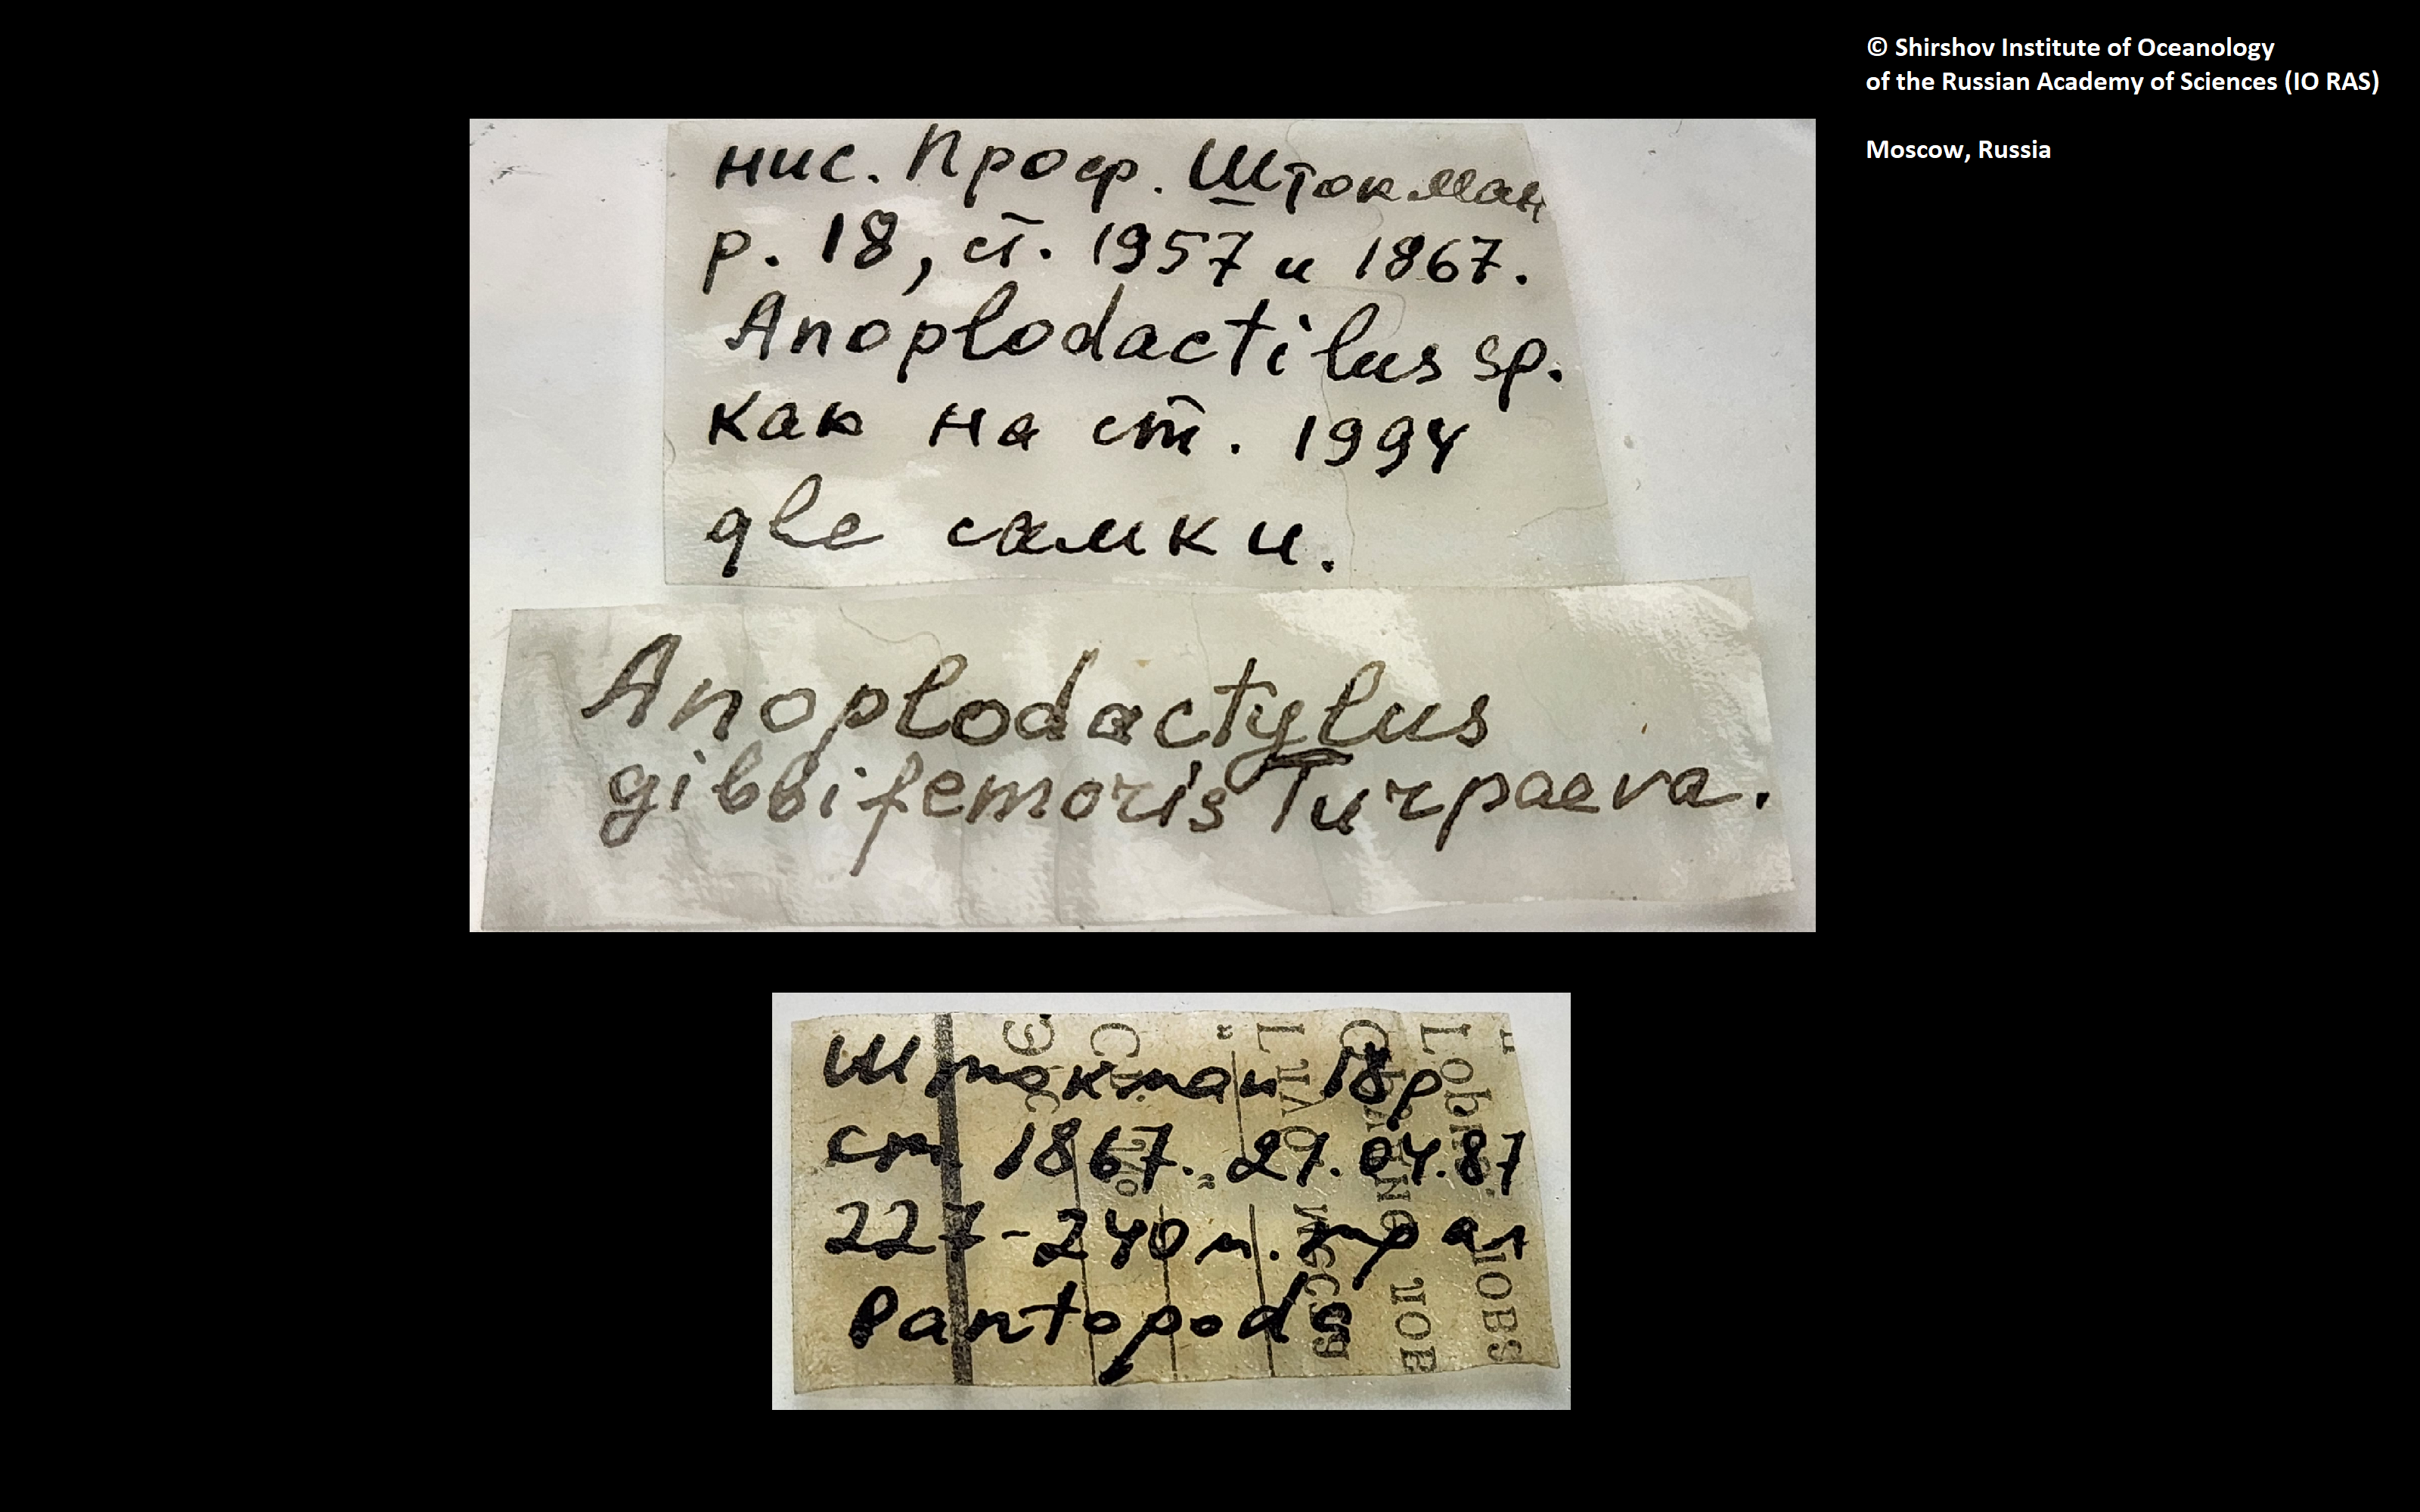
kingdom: Animalia
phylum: Arthropoda
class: Pycnogonida
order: Pantopoda
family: Phoxichilidiidae
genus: Anoplodactylus
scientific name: Anoplodactylus gibbifemoris
